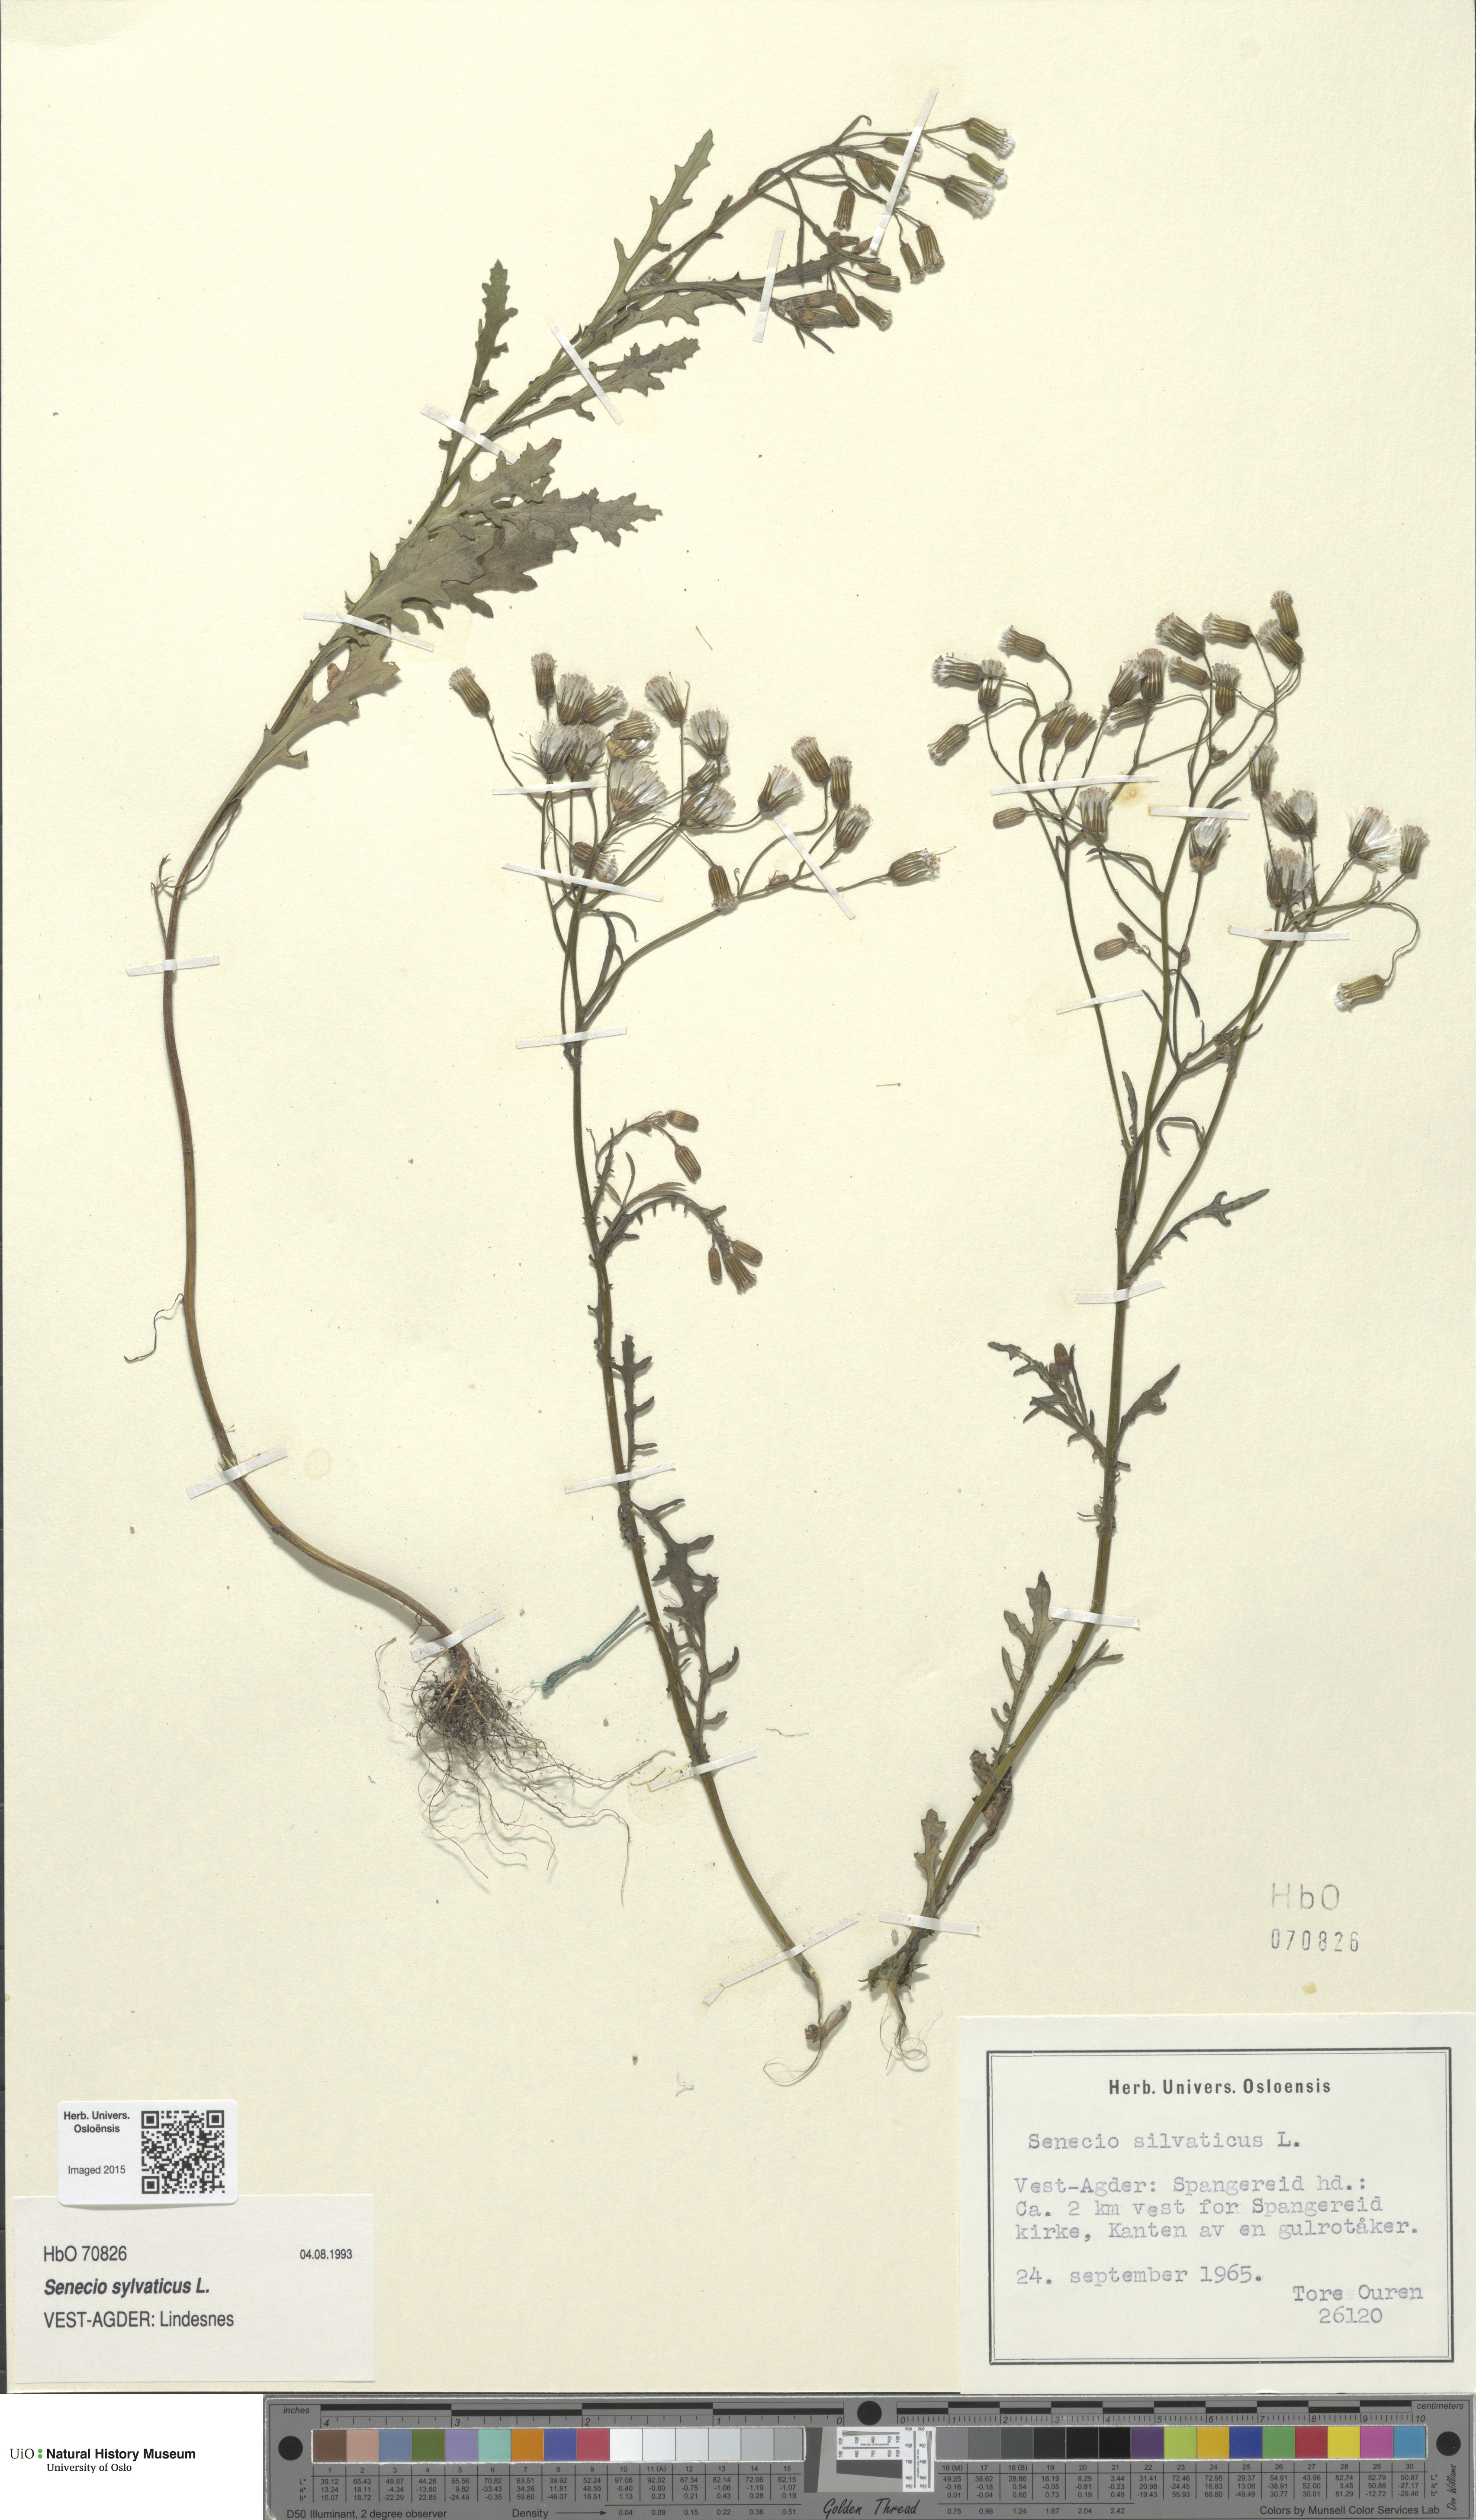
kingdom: Plantae
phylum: Tracheophyta
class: Magnoliopsida
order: Asterales
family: Asteraceae
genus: Senecio
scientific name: Senecio sylvaticus
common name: Woodland ragwort
